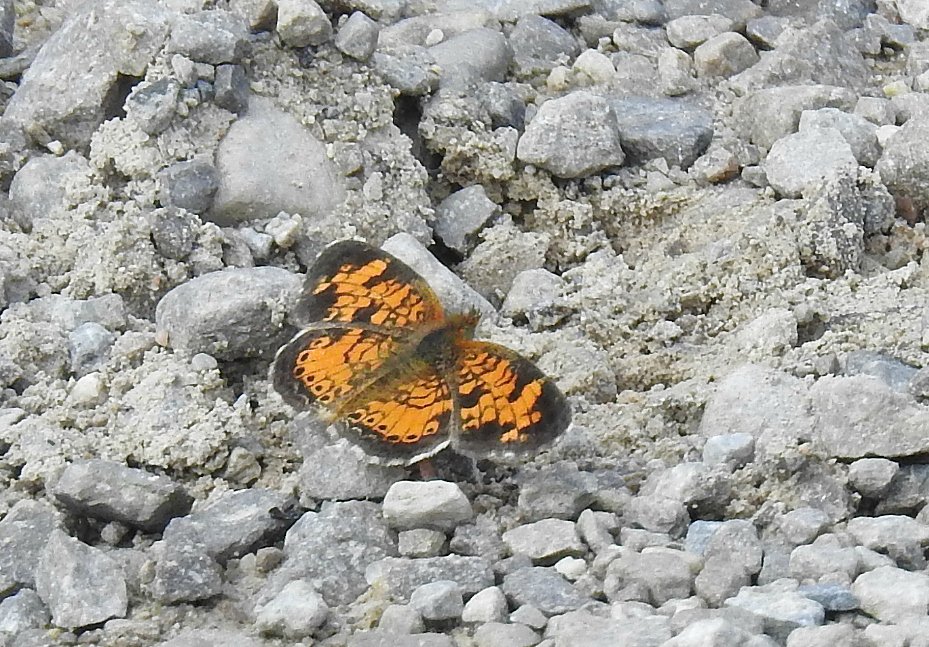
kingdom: Animalia
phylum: Arthropoda
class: Insecta
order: Lepidoptera
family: Nymphalidae
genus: Phyciodes
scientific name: Phyciodes tharos
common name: Pearl Crescent
